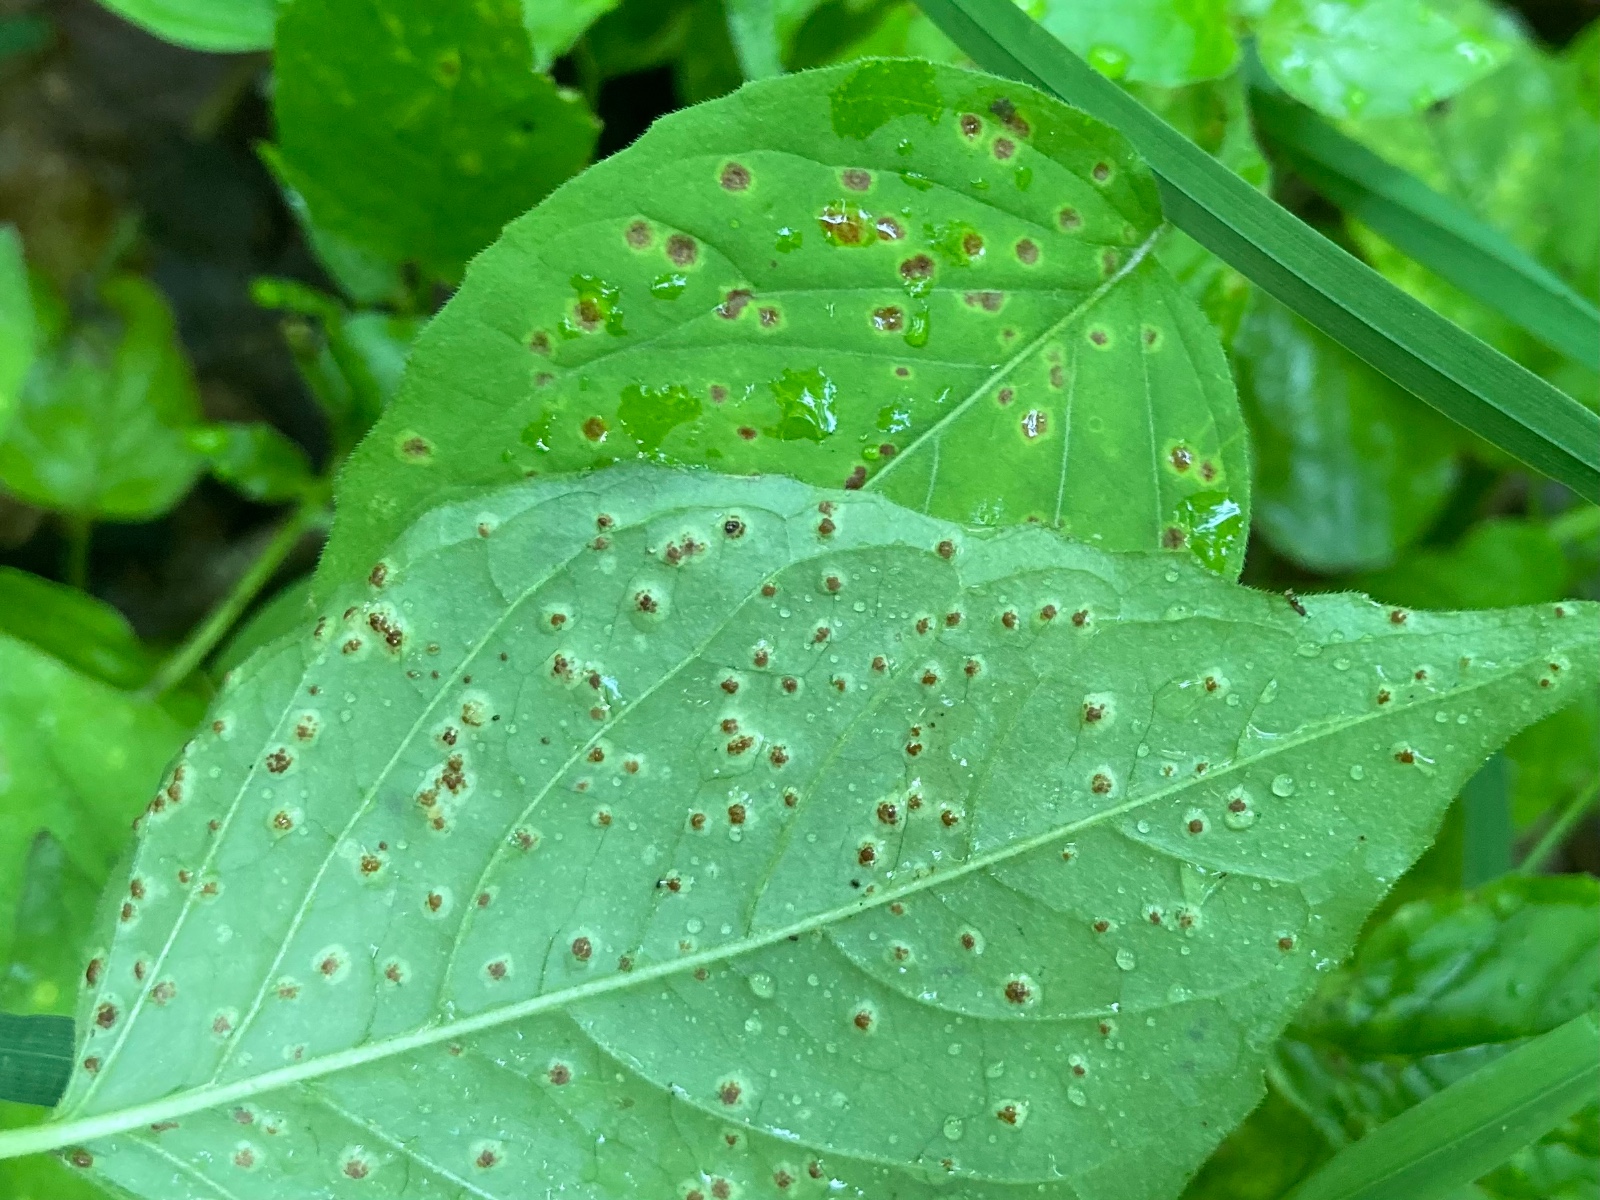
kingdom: Fungi
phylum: Basidiomycota
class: Pucciniomycetes
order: Pucciniales
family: Pucciniaceae
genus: Puccinia
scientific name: Puccinia circaeae
